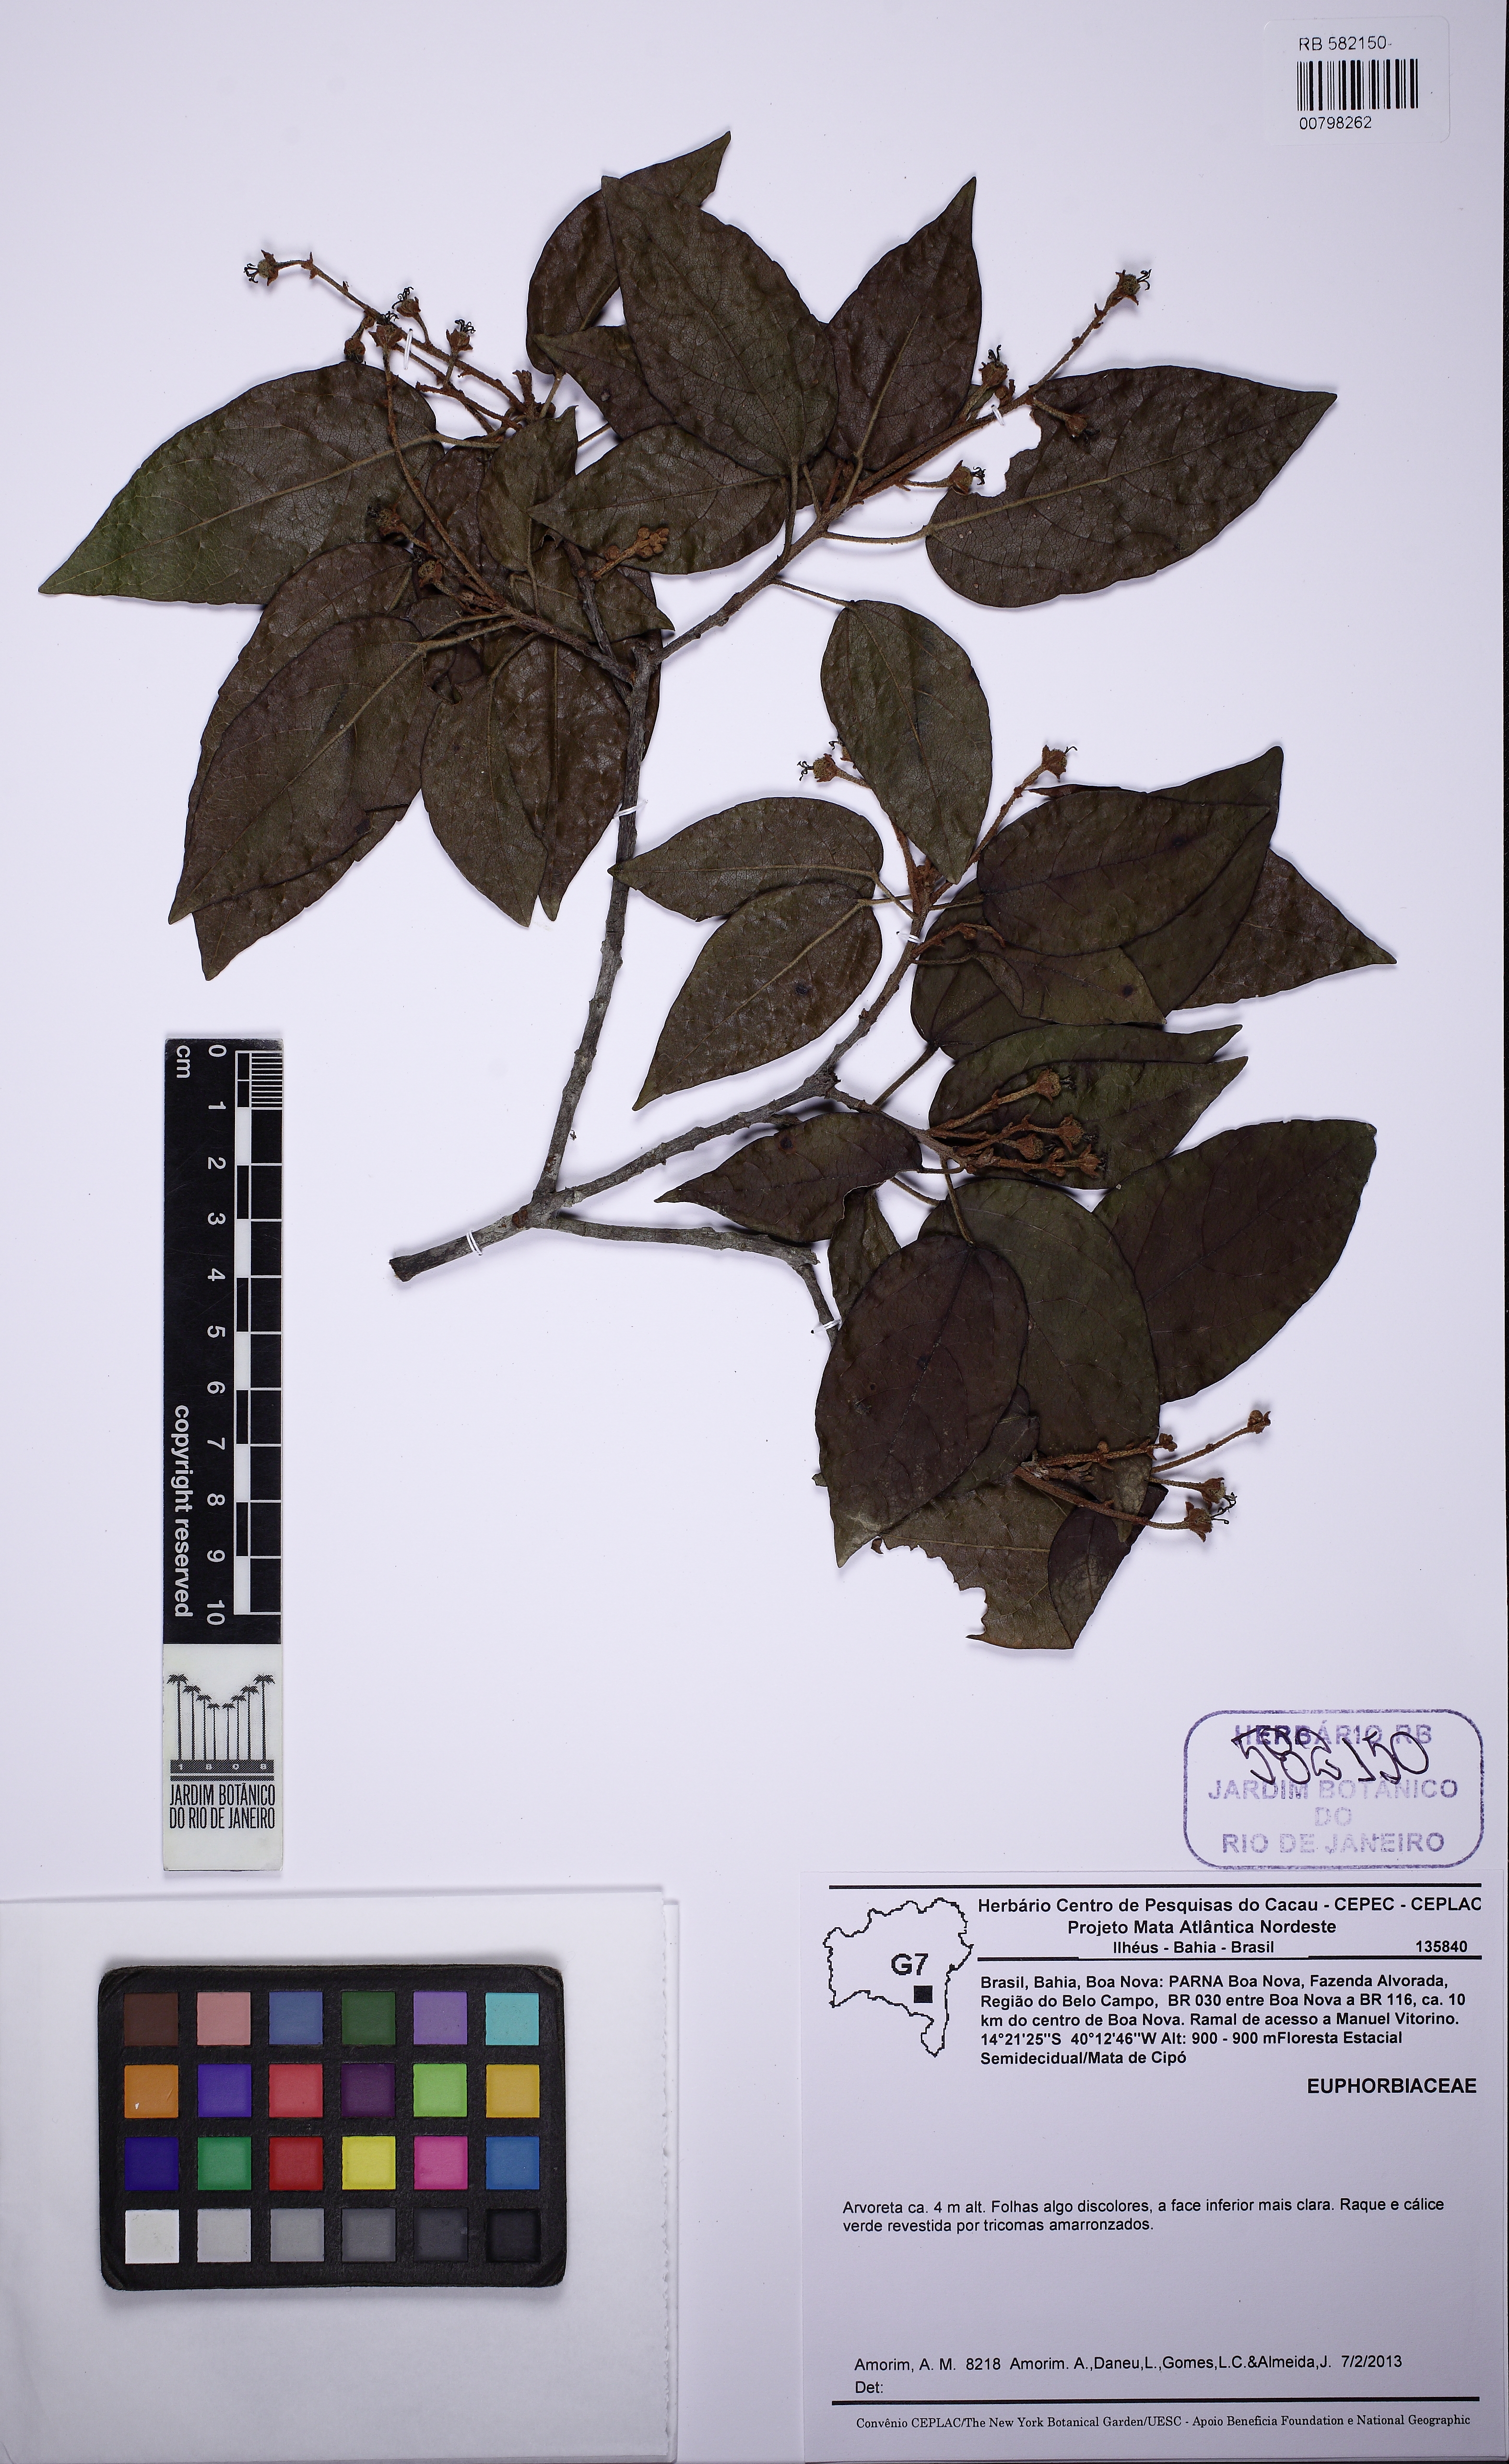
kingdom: Plantae
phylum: Tracheophyta
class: Magnoliopsida
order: Malpighiales
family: Euphorbiaceae
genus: Brasiliocroton
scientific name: Brasiliocroton muricatus
